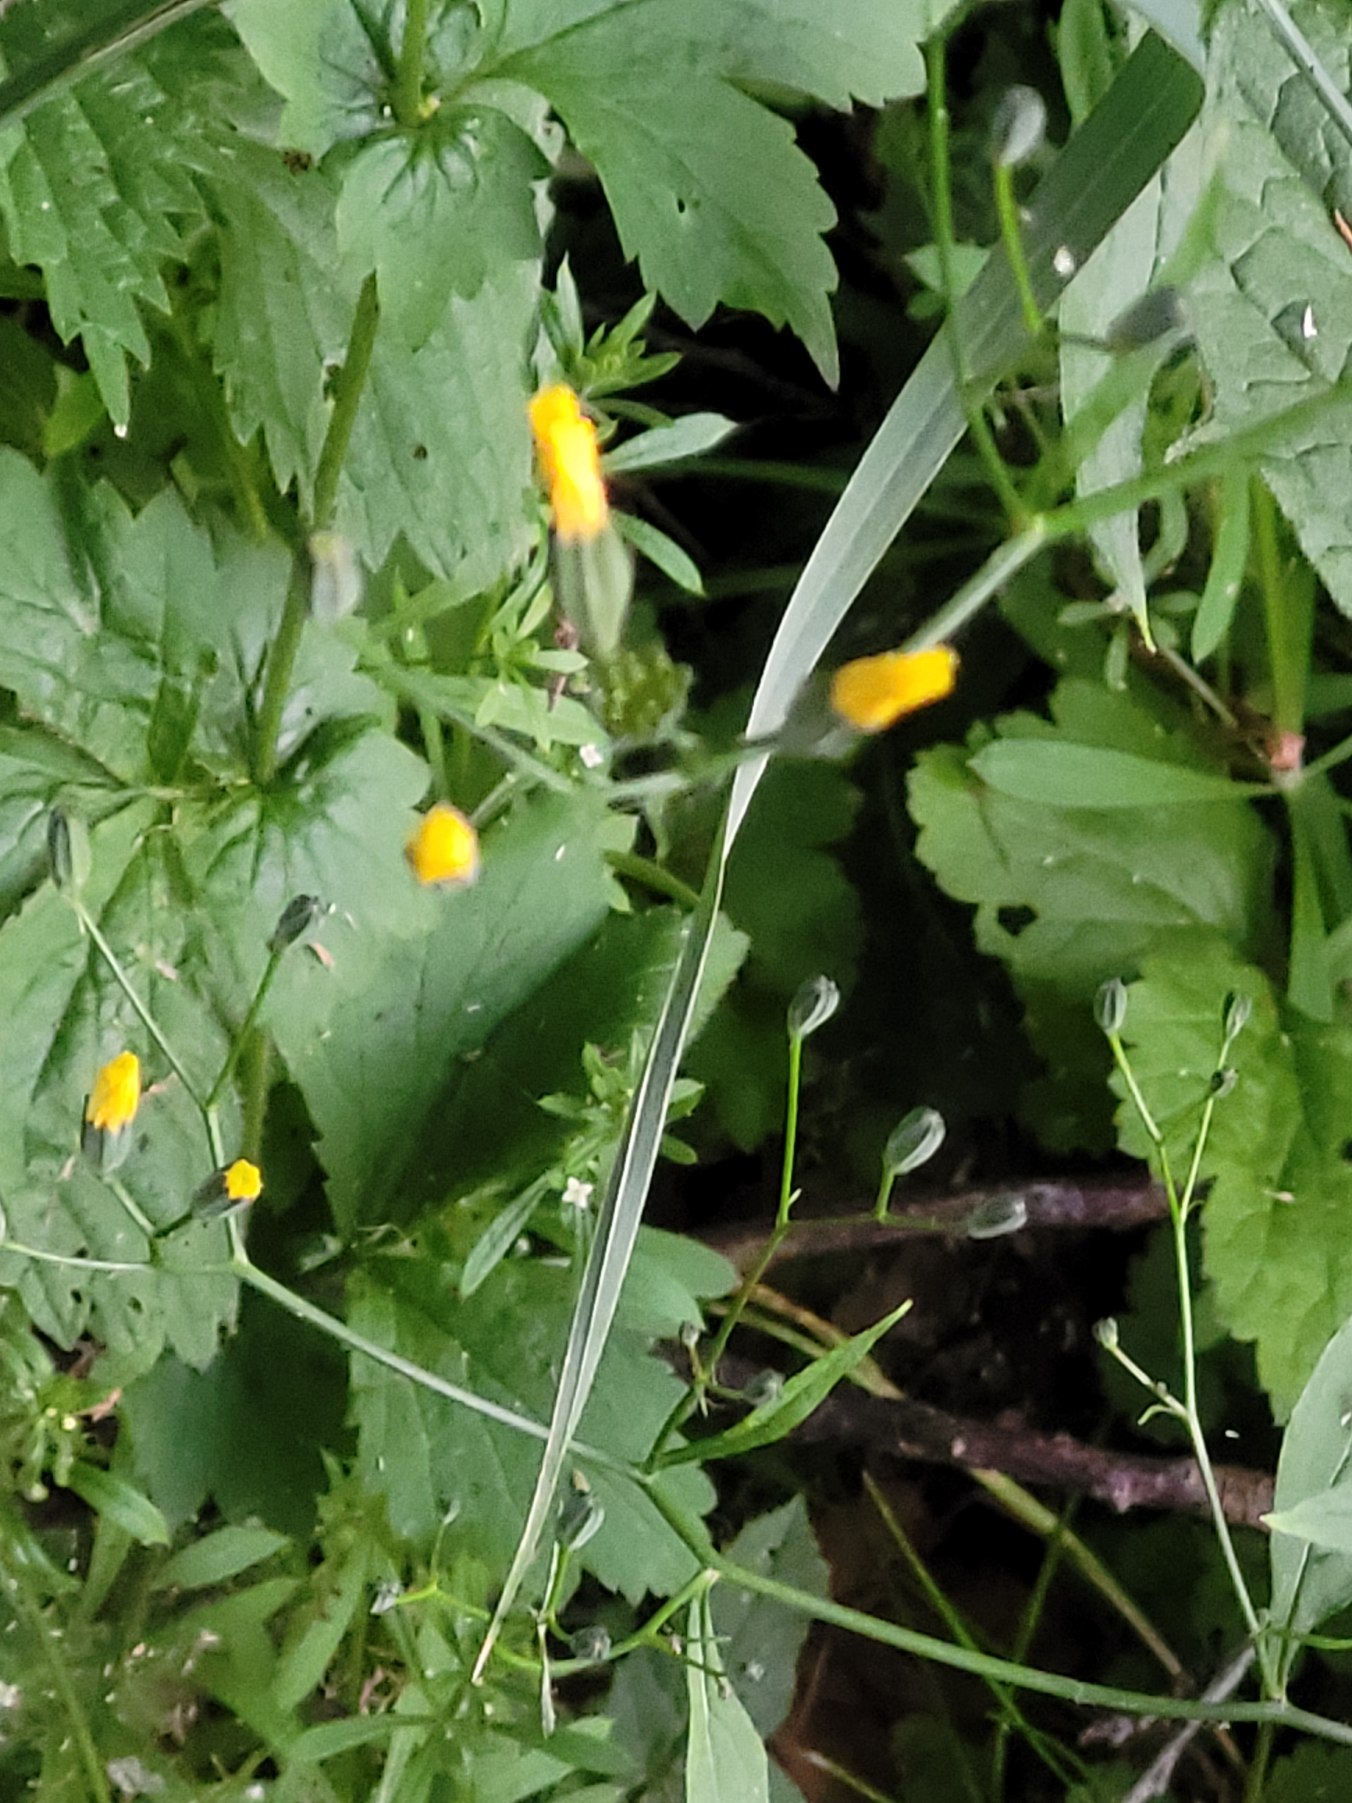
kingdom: Plantae
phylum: Tracheophyta
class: Magnoliopsida
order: Asterales
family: Asteraceae
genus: Lapsana
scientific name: Lapsana communis
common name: Haremad
